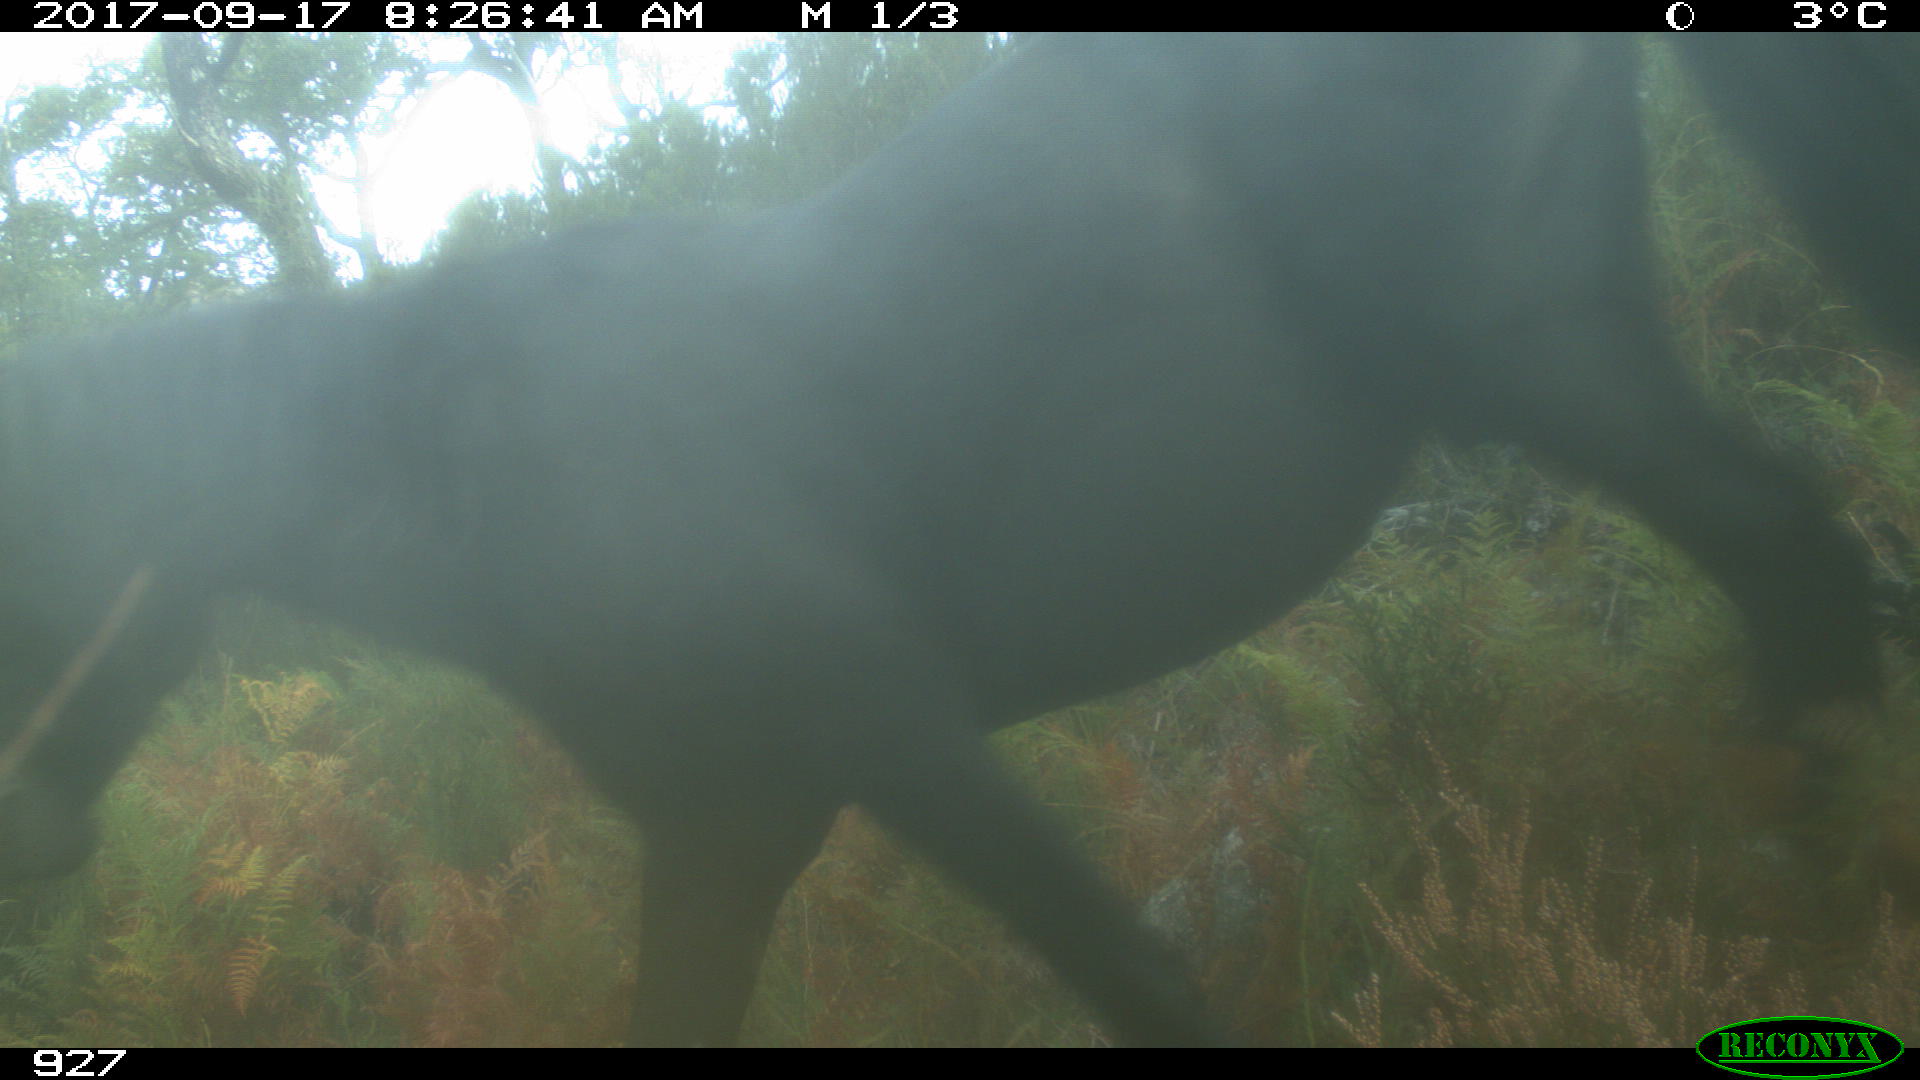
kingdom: Animalia
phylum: Chordata
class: Mammalia
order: Perissodactyla
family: Equidae
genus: Equus
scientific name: Equus caballus
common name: Horse
